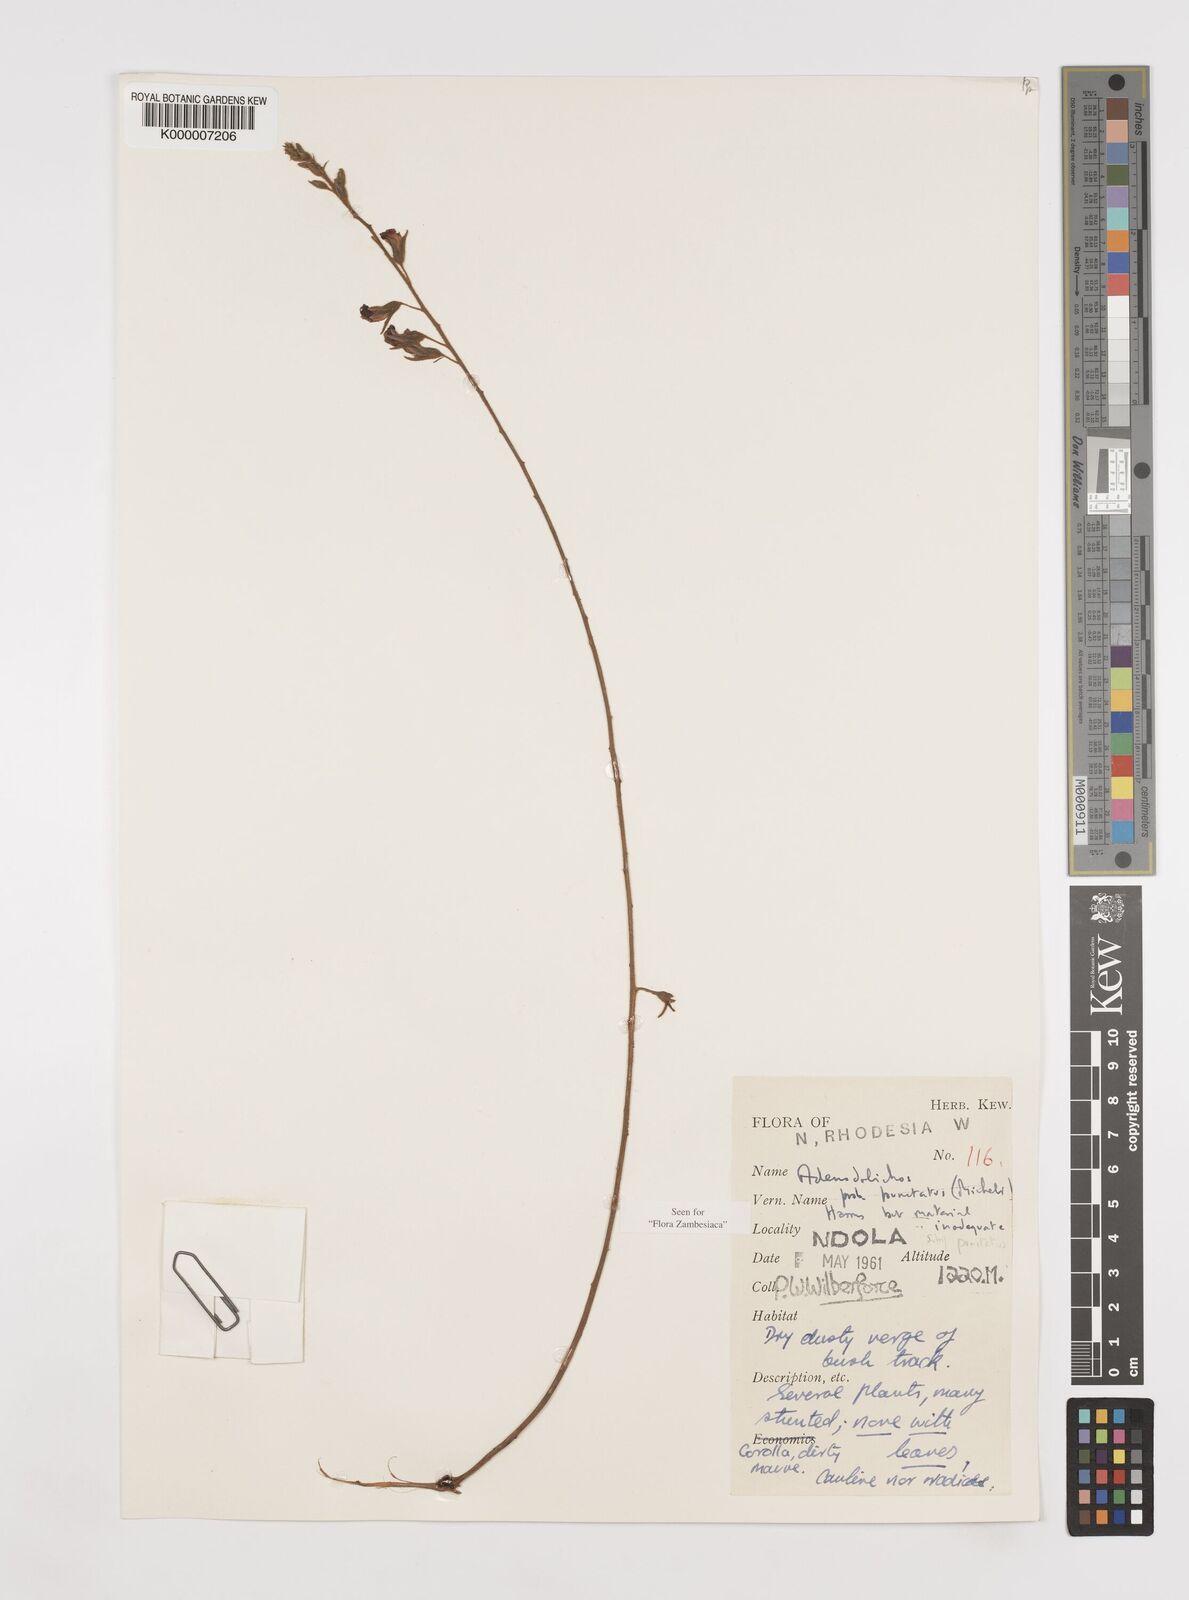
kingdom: Plantae
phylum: Tracheophyta
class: Magnoliopsida
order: Fabales
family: Fabaceae
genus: Adenodolichos
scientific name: Adenodolichos punctatus
